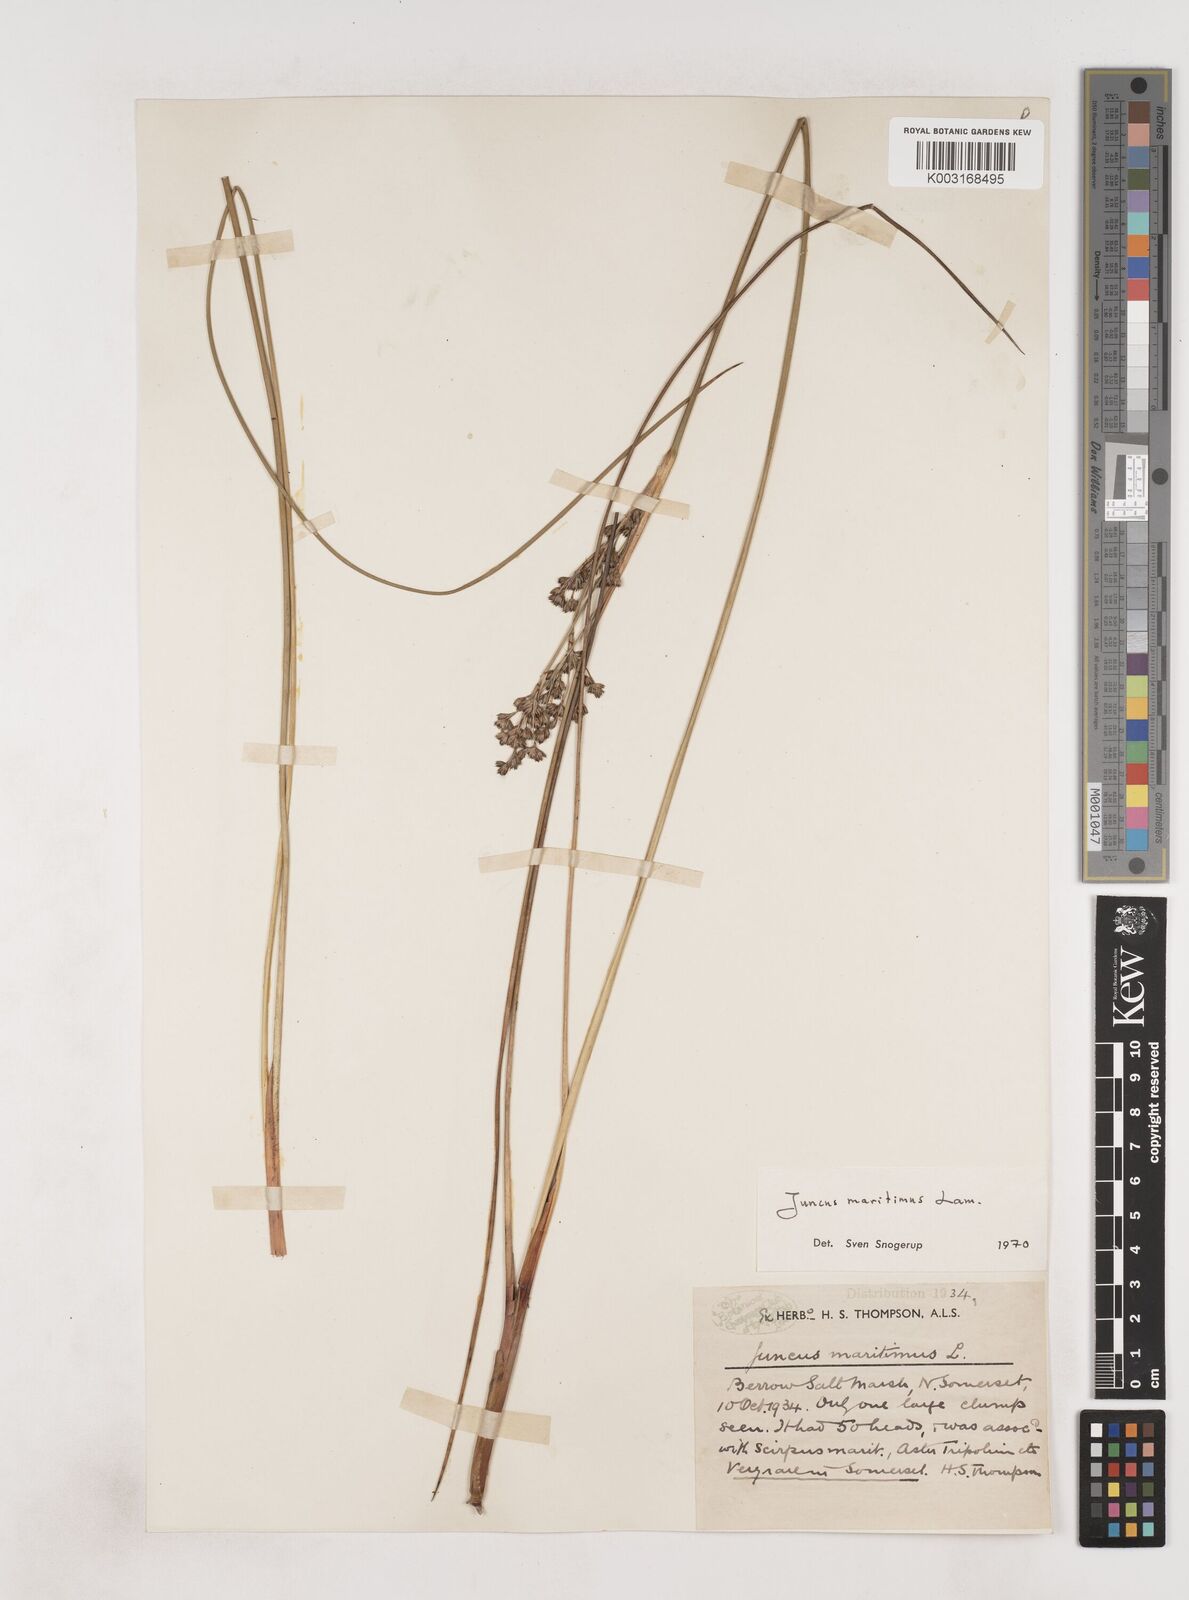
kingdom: Plantae
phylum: Tracheophyta
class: Liliopsida
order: Poales
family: Juncaceae
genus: Juncus
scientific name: Juncus maritimus
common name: Sea rush
